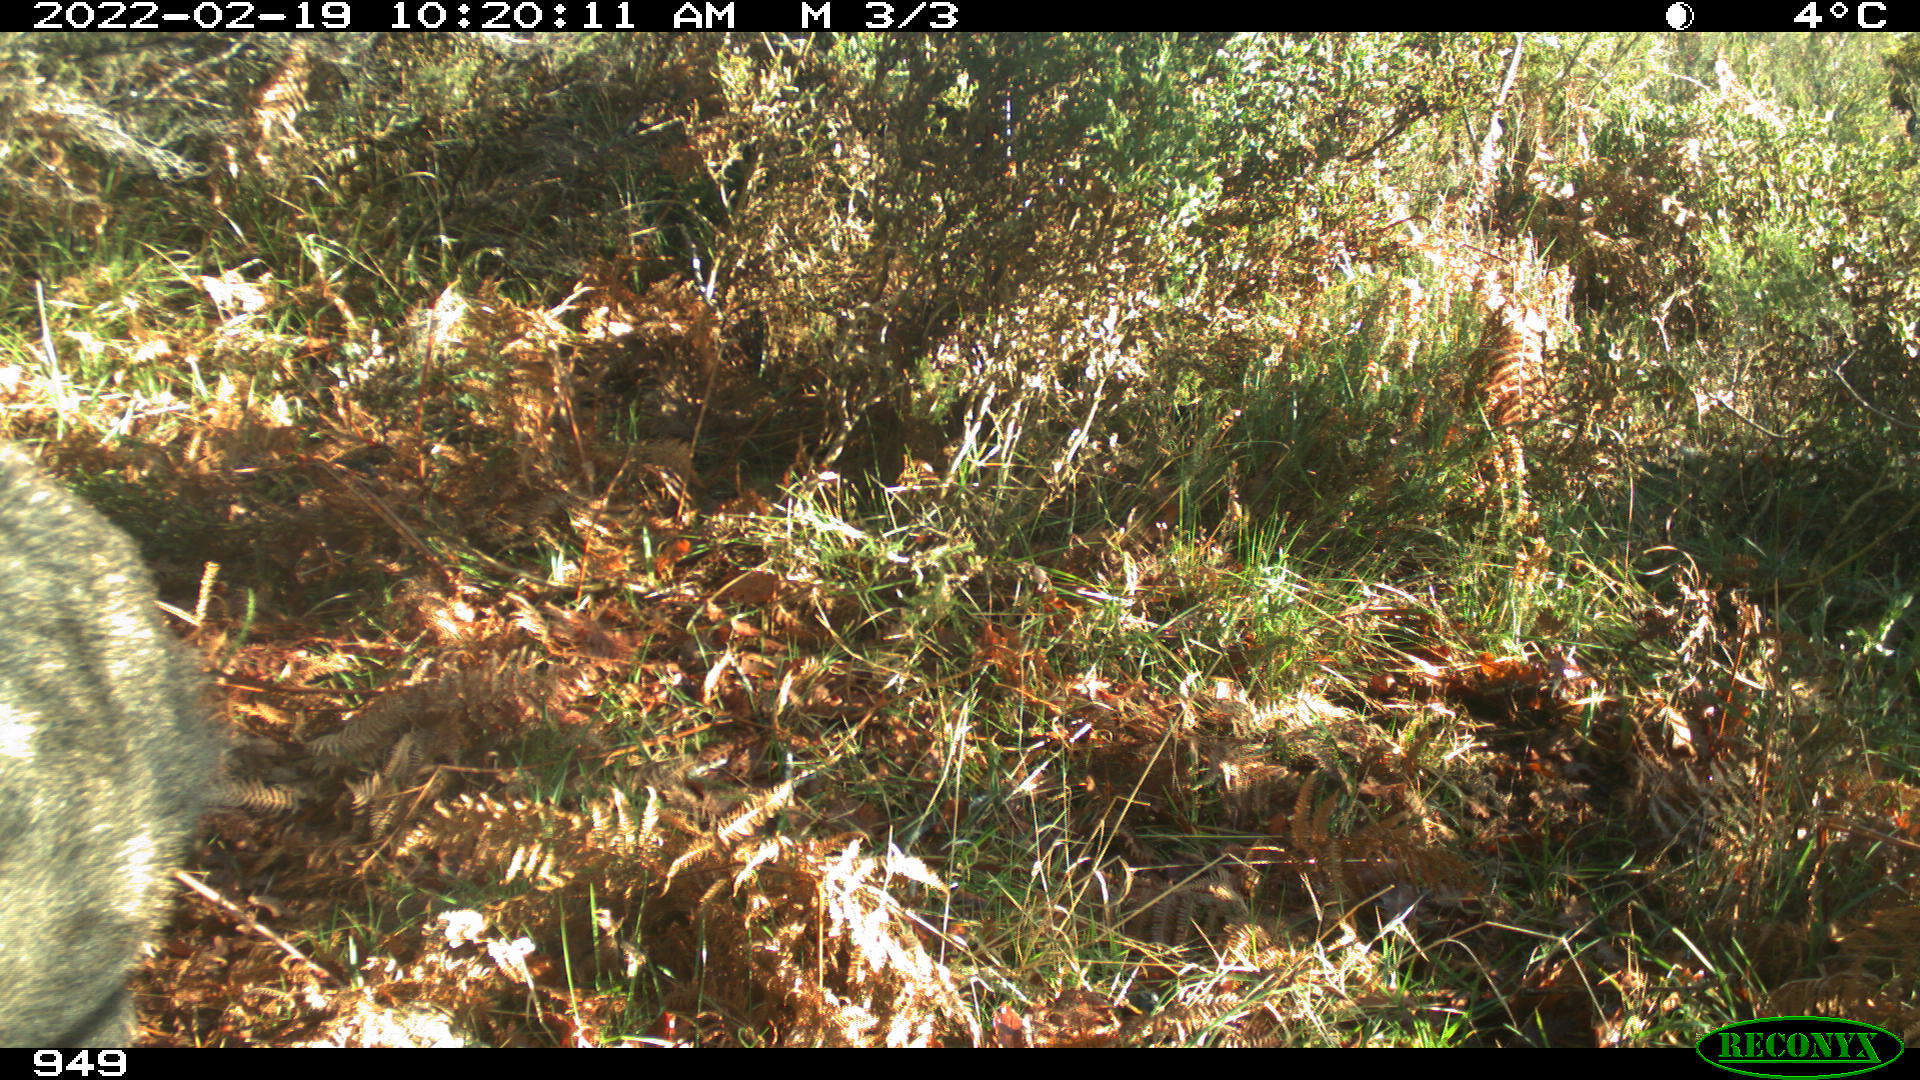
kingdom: Animalia
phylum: Chordata
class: Mammalia
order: Artiodactyla
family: Suidae
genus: Sus
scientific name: Sus scrofa
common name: Wild boar
